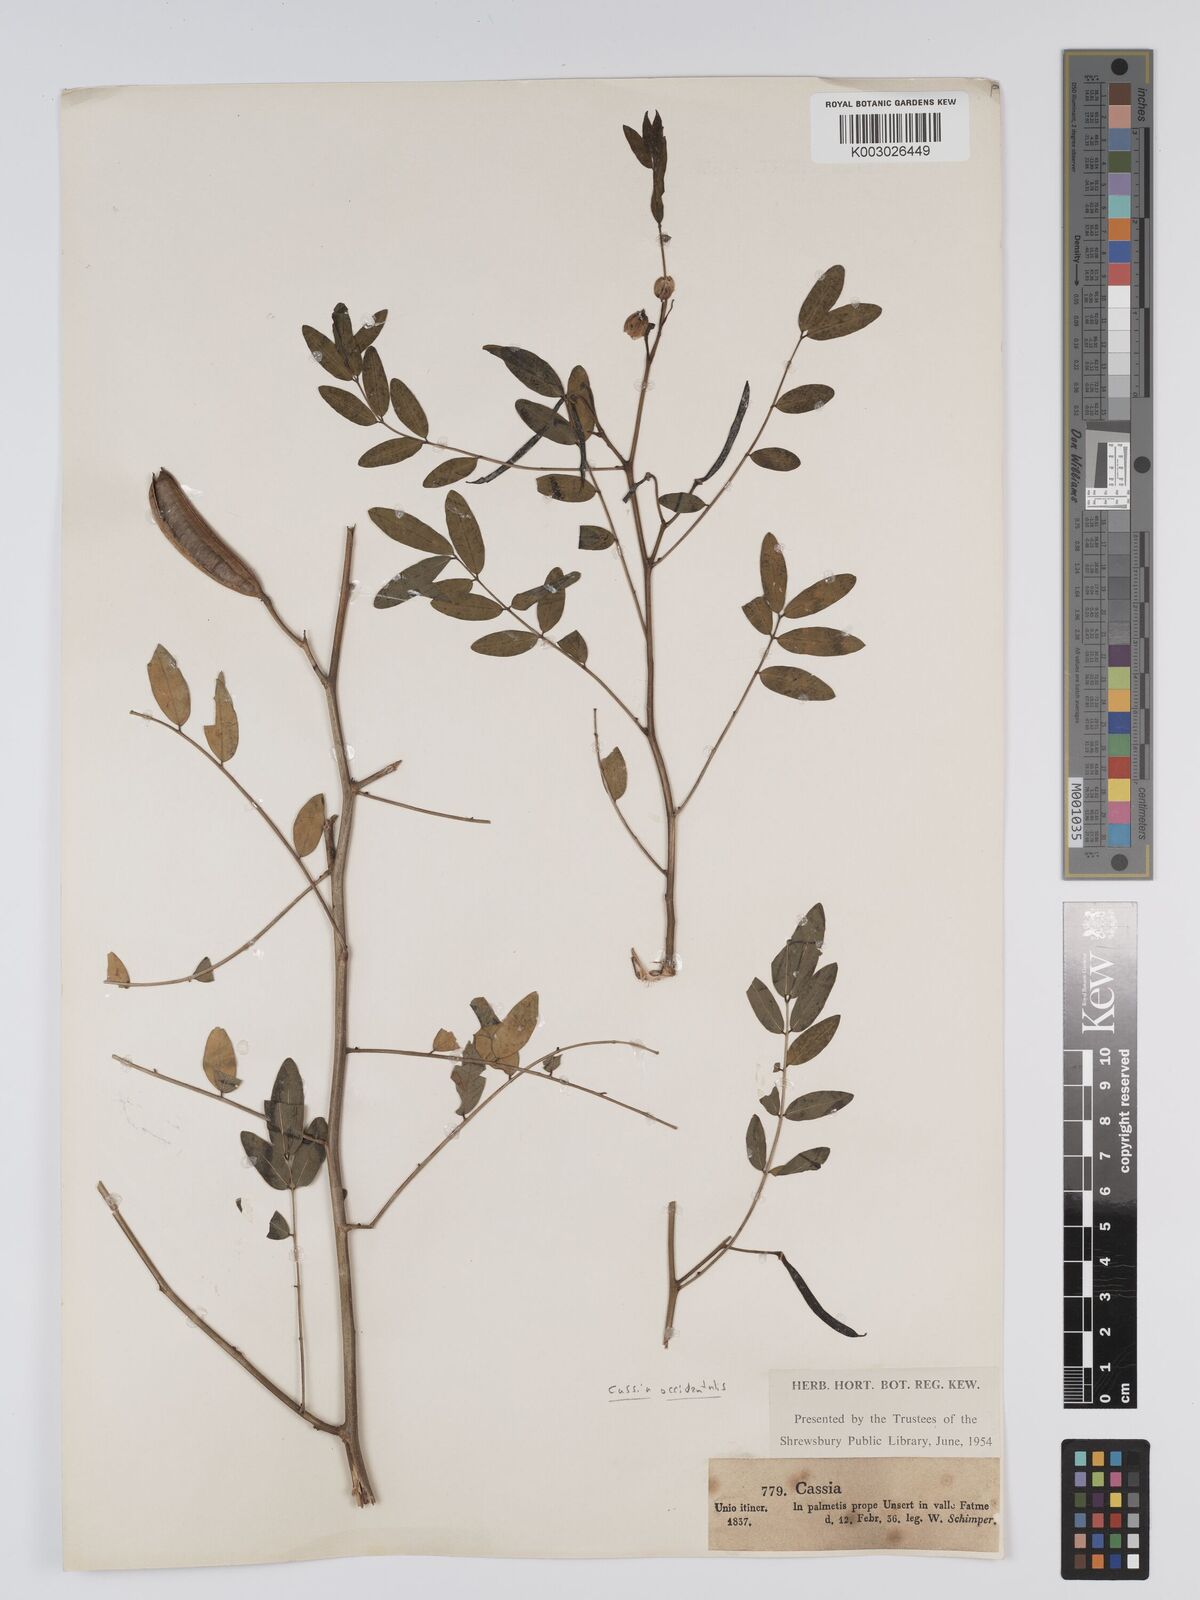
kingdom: Plantae
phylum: Tracheophyta
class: Magnoliopsida
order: Fabales
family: Fabaceae
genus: Cassia
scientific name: Cassia
